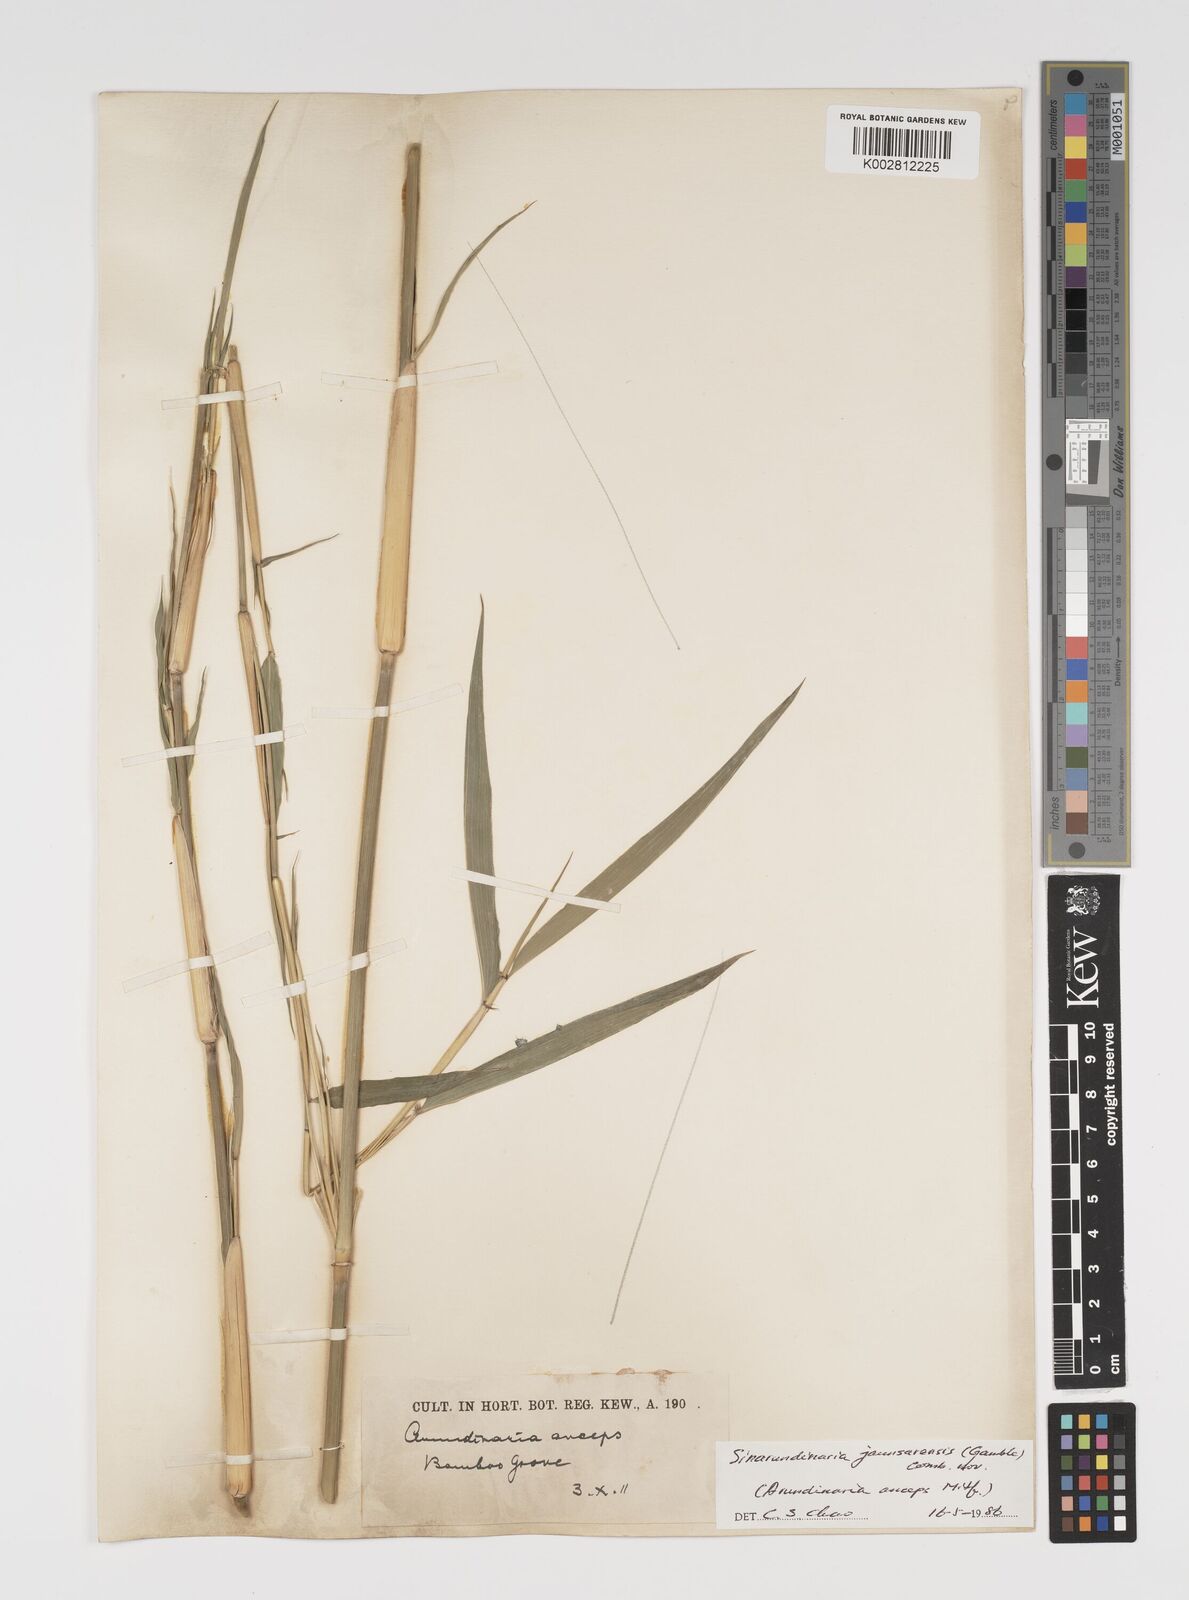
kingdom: Plantae
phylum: Tracheophyta
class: Liliopsida
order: Poales
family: Poaceae
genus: Yushania
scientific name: Yushania anceps
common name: Indian fountain-bamboo
